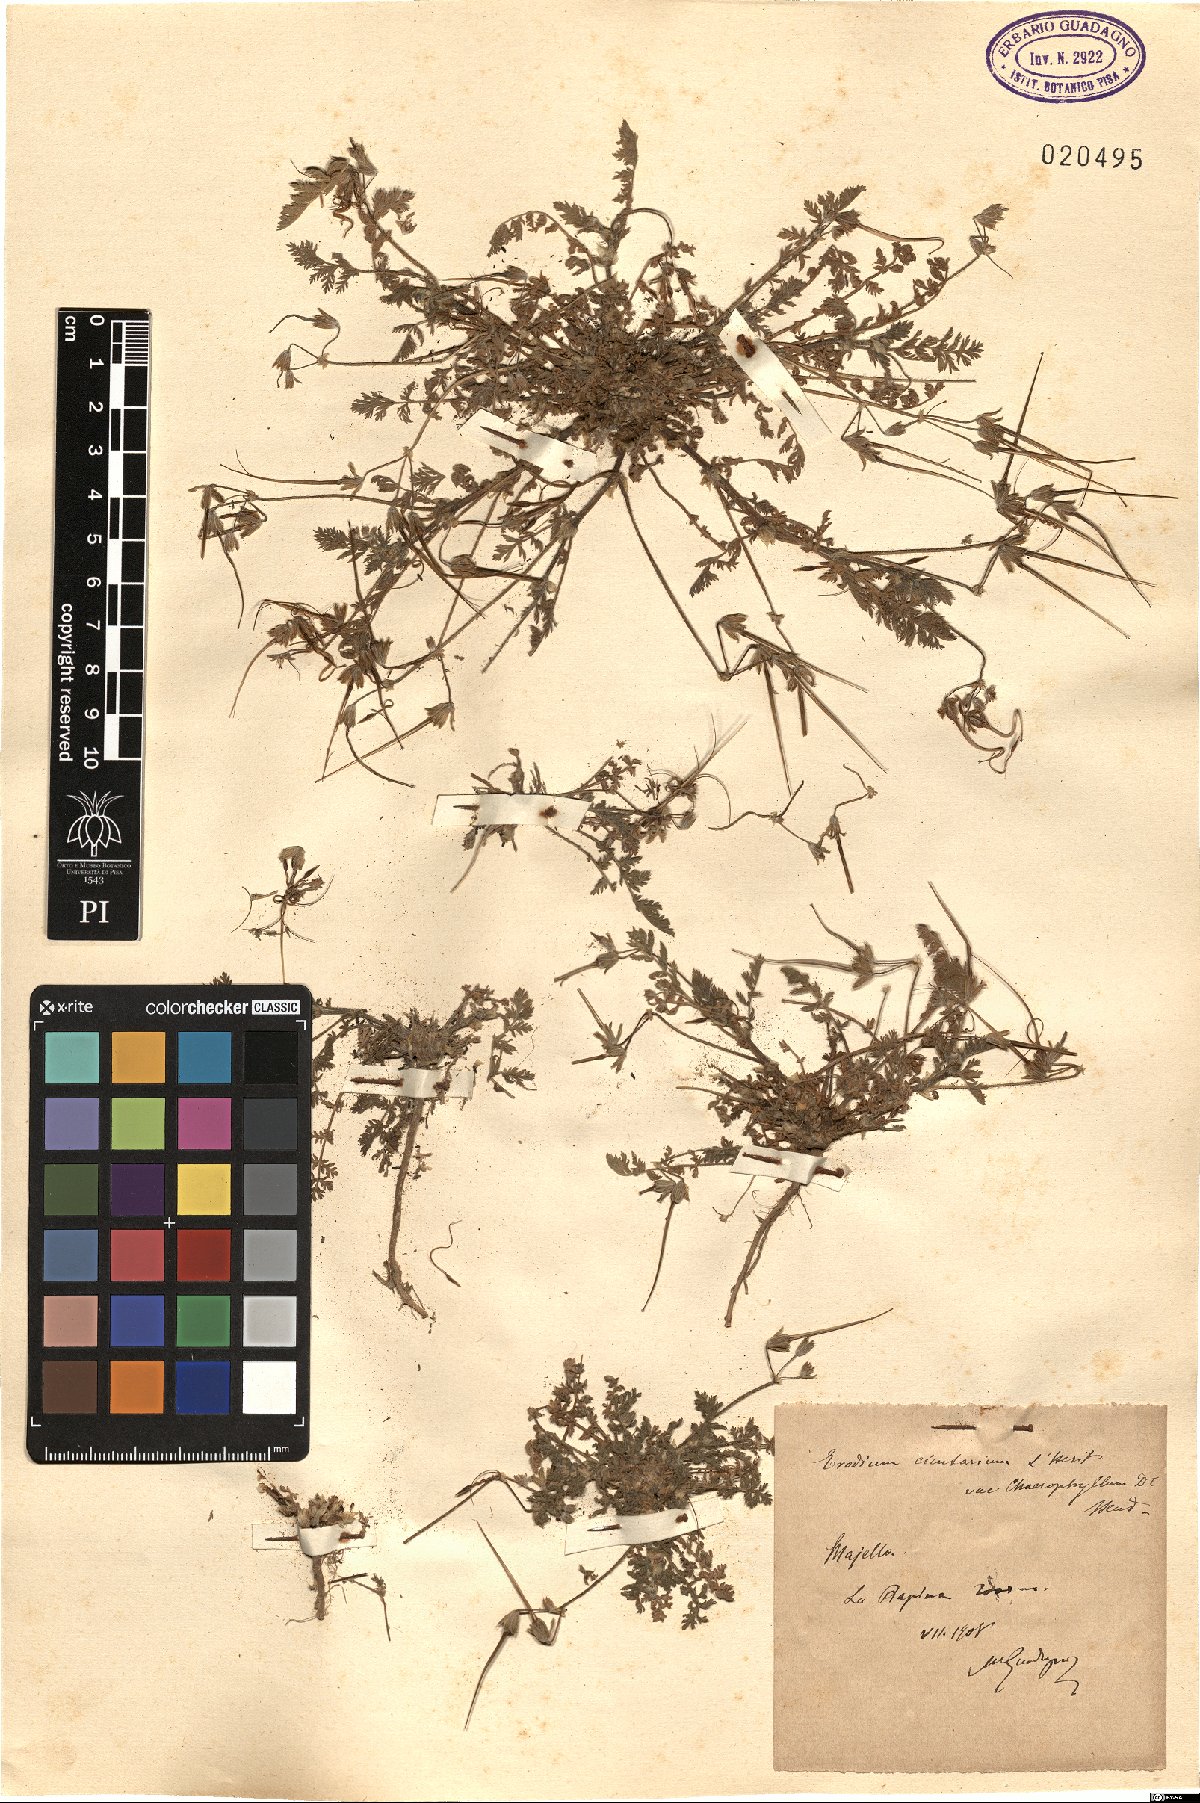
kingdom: Plantae
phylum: Tracheophyta
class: Magnoliopsida
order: Geraniales
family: Geraniaceae
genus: Erodium
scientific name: Erodium cicutarium
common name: Common stork's-bill
